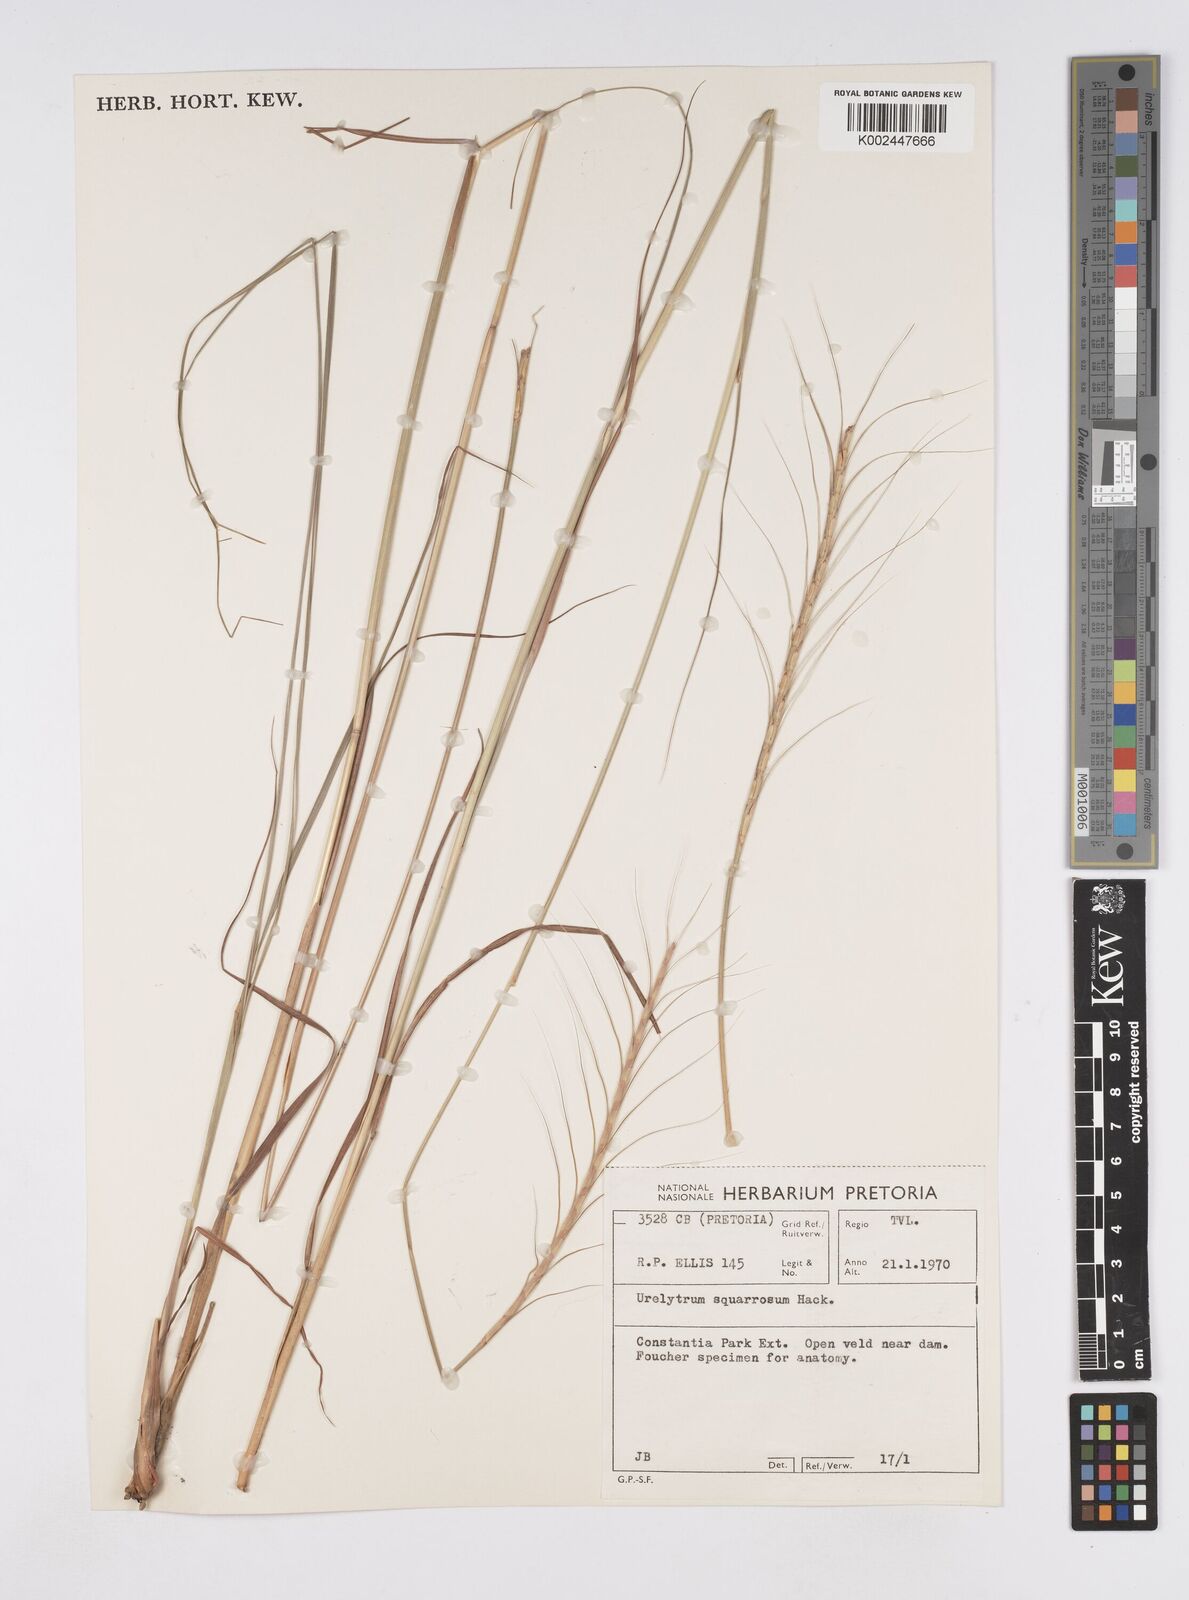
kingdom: Plantae
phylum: Tracheophyta
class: Liliopsida
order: Poales
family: Poaceae
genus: Urelytrum
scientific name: Urelytrum agropyroides
